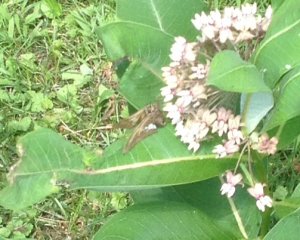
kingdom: Animalia
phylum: Arthropoda
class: Insecta
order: Lepidoptera
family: Hesperiidae
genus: Epargyreus
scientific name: Epargyreus clarus
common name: Silver-spotted Skipper
